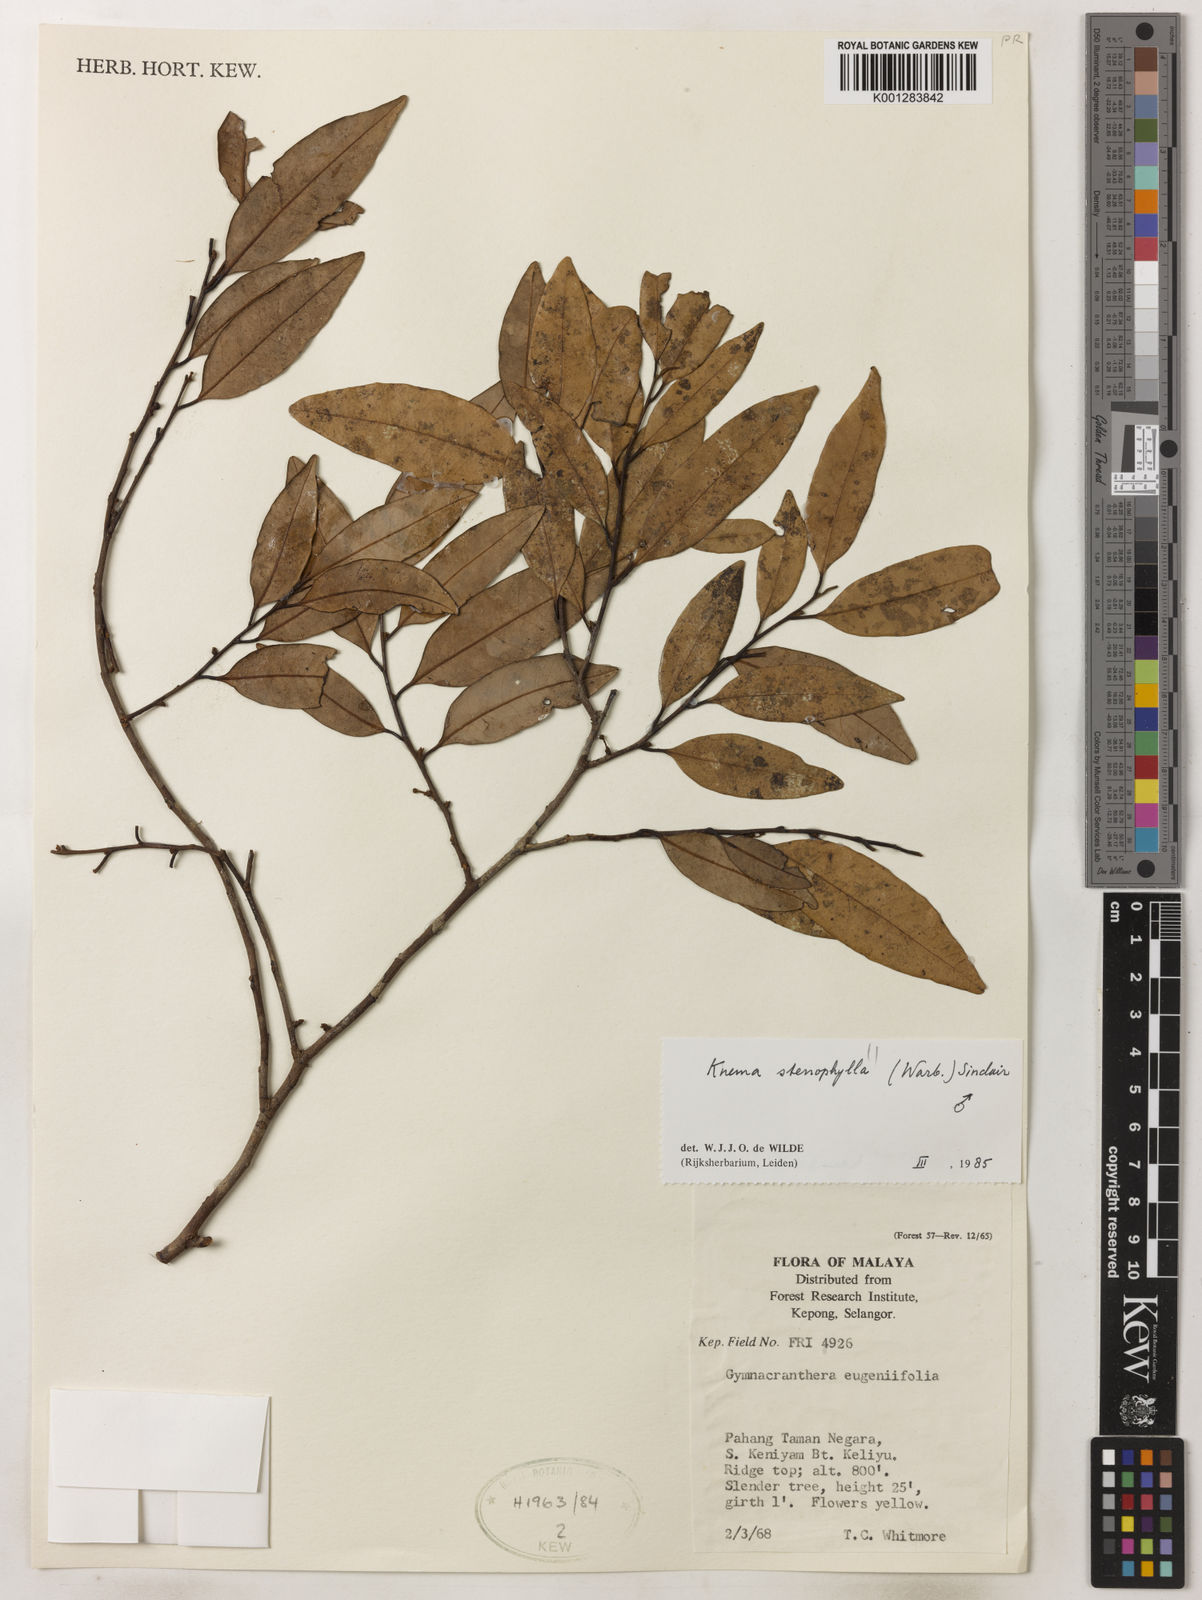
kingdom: Plantae
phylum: Tracheophyta
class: Magnoliopsida
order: Magnoliales
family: Myristicaceae
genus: Knema
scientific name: Knema stenophylla
